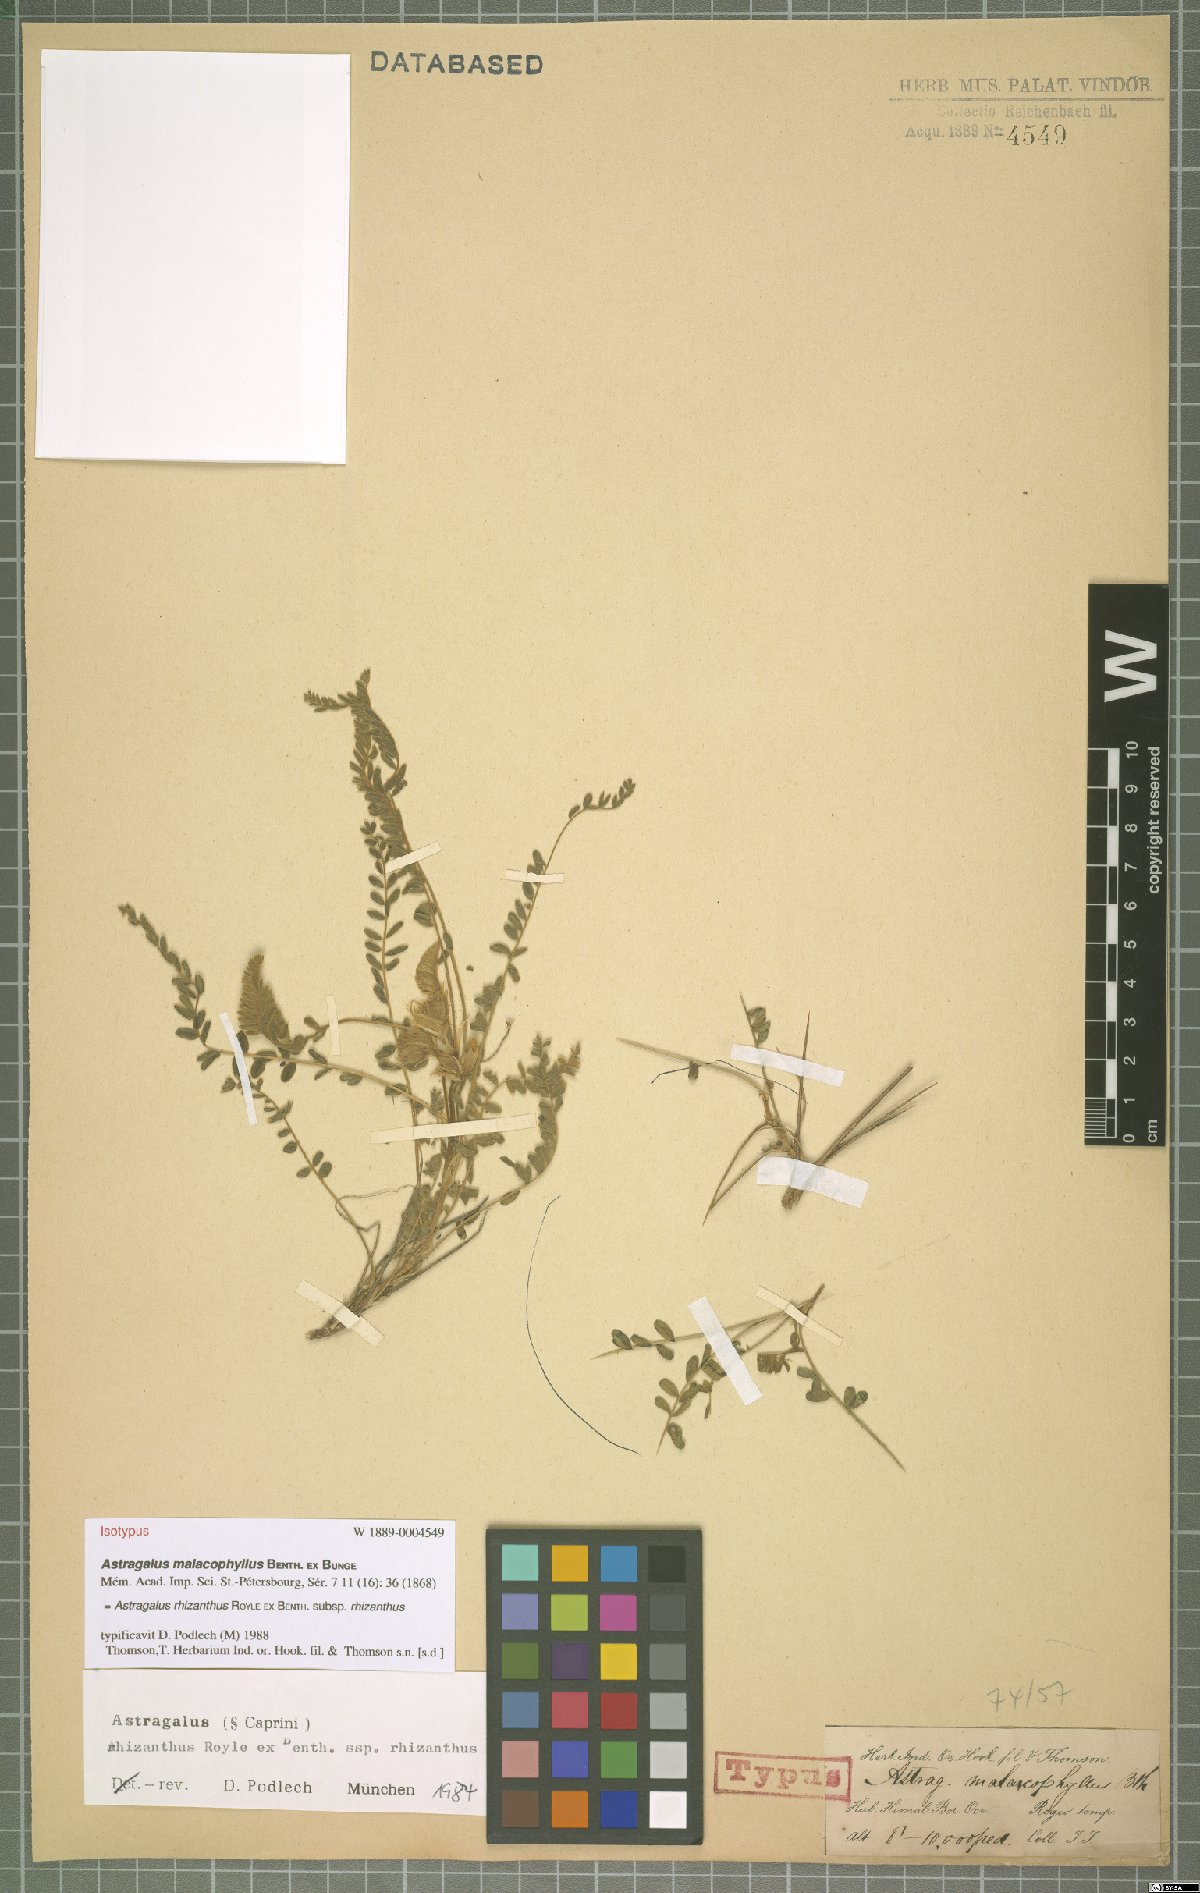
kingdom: Plantae
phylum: Tracheophyta
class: Magnoliopsida
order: Fabales
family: Fabaceae
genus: Astragalus
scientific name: Astragalus rhizanthus
